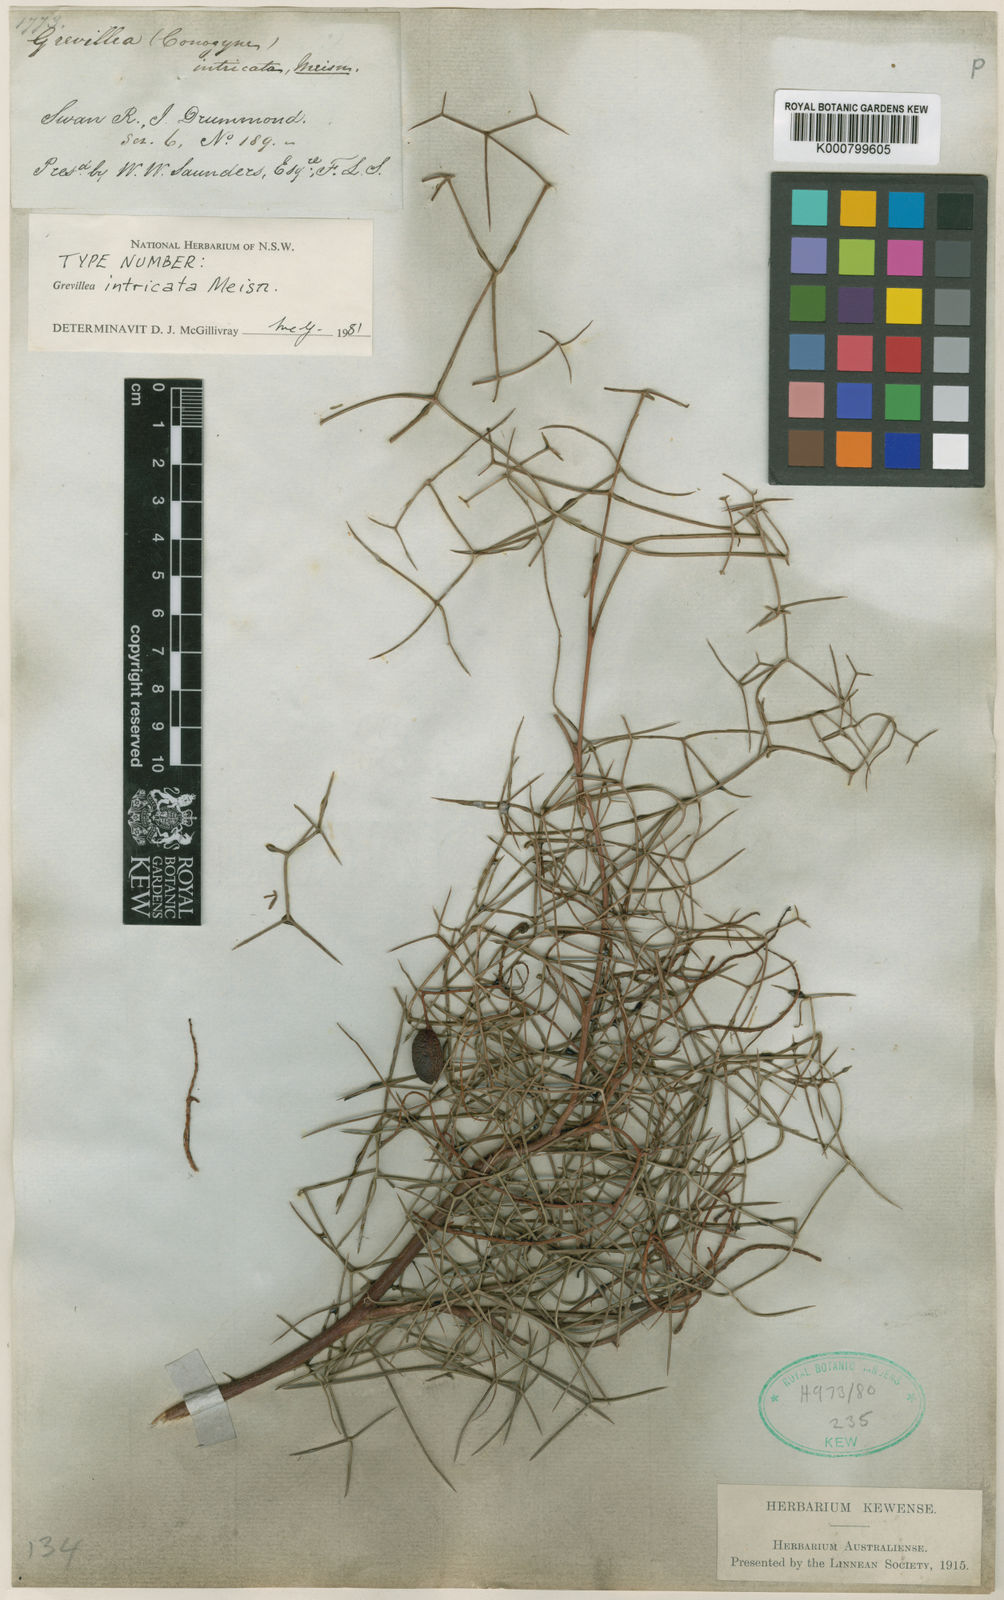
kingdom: Plantae
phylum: Tracheophyta
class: Magnoliopsida
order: Proteales
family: Proteaceae
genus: Grevillea
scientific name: Grevillea intricata
